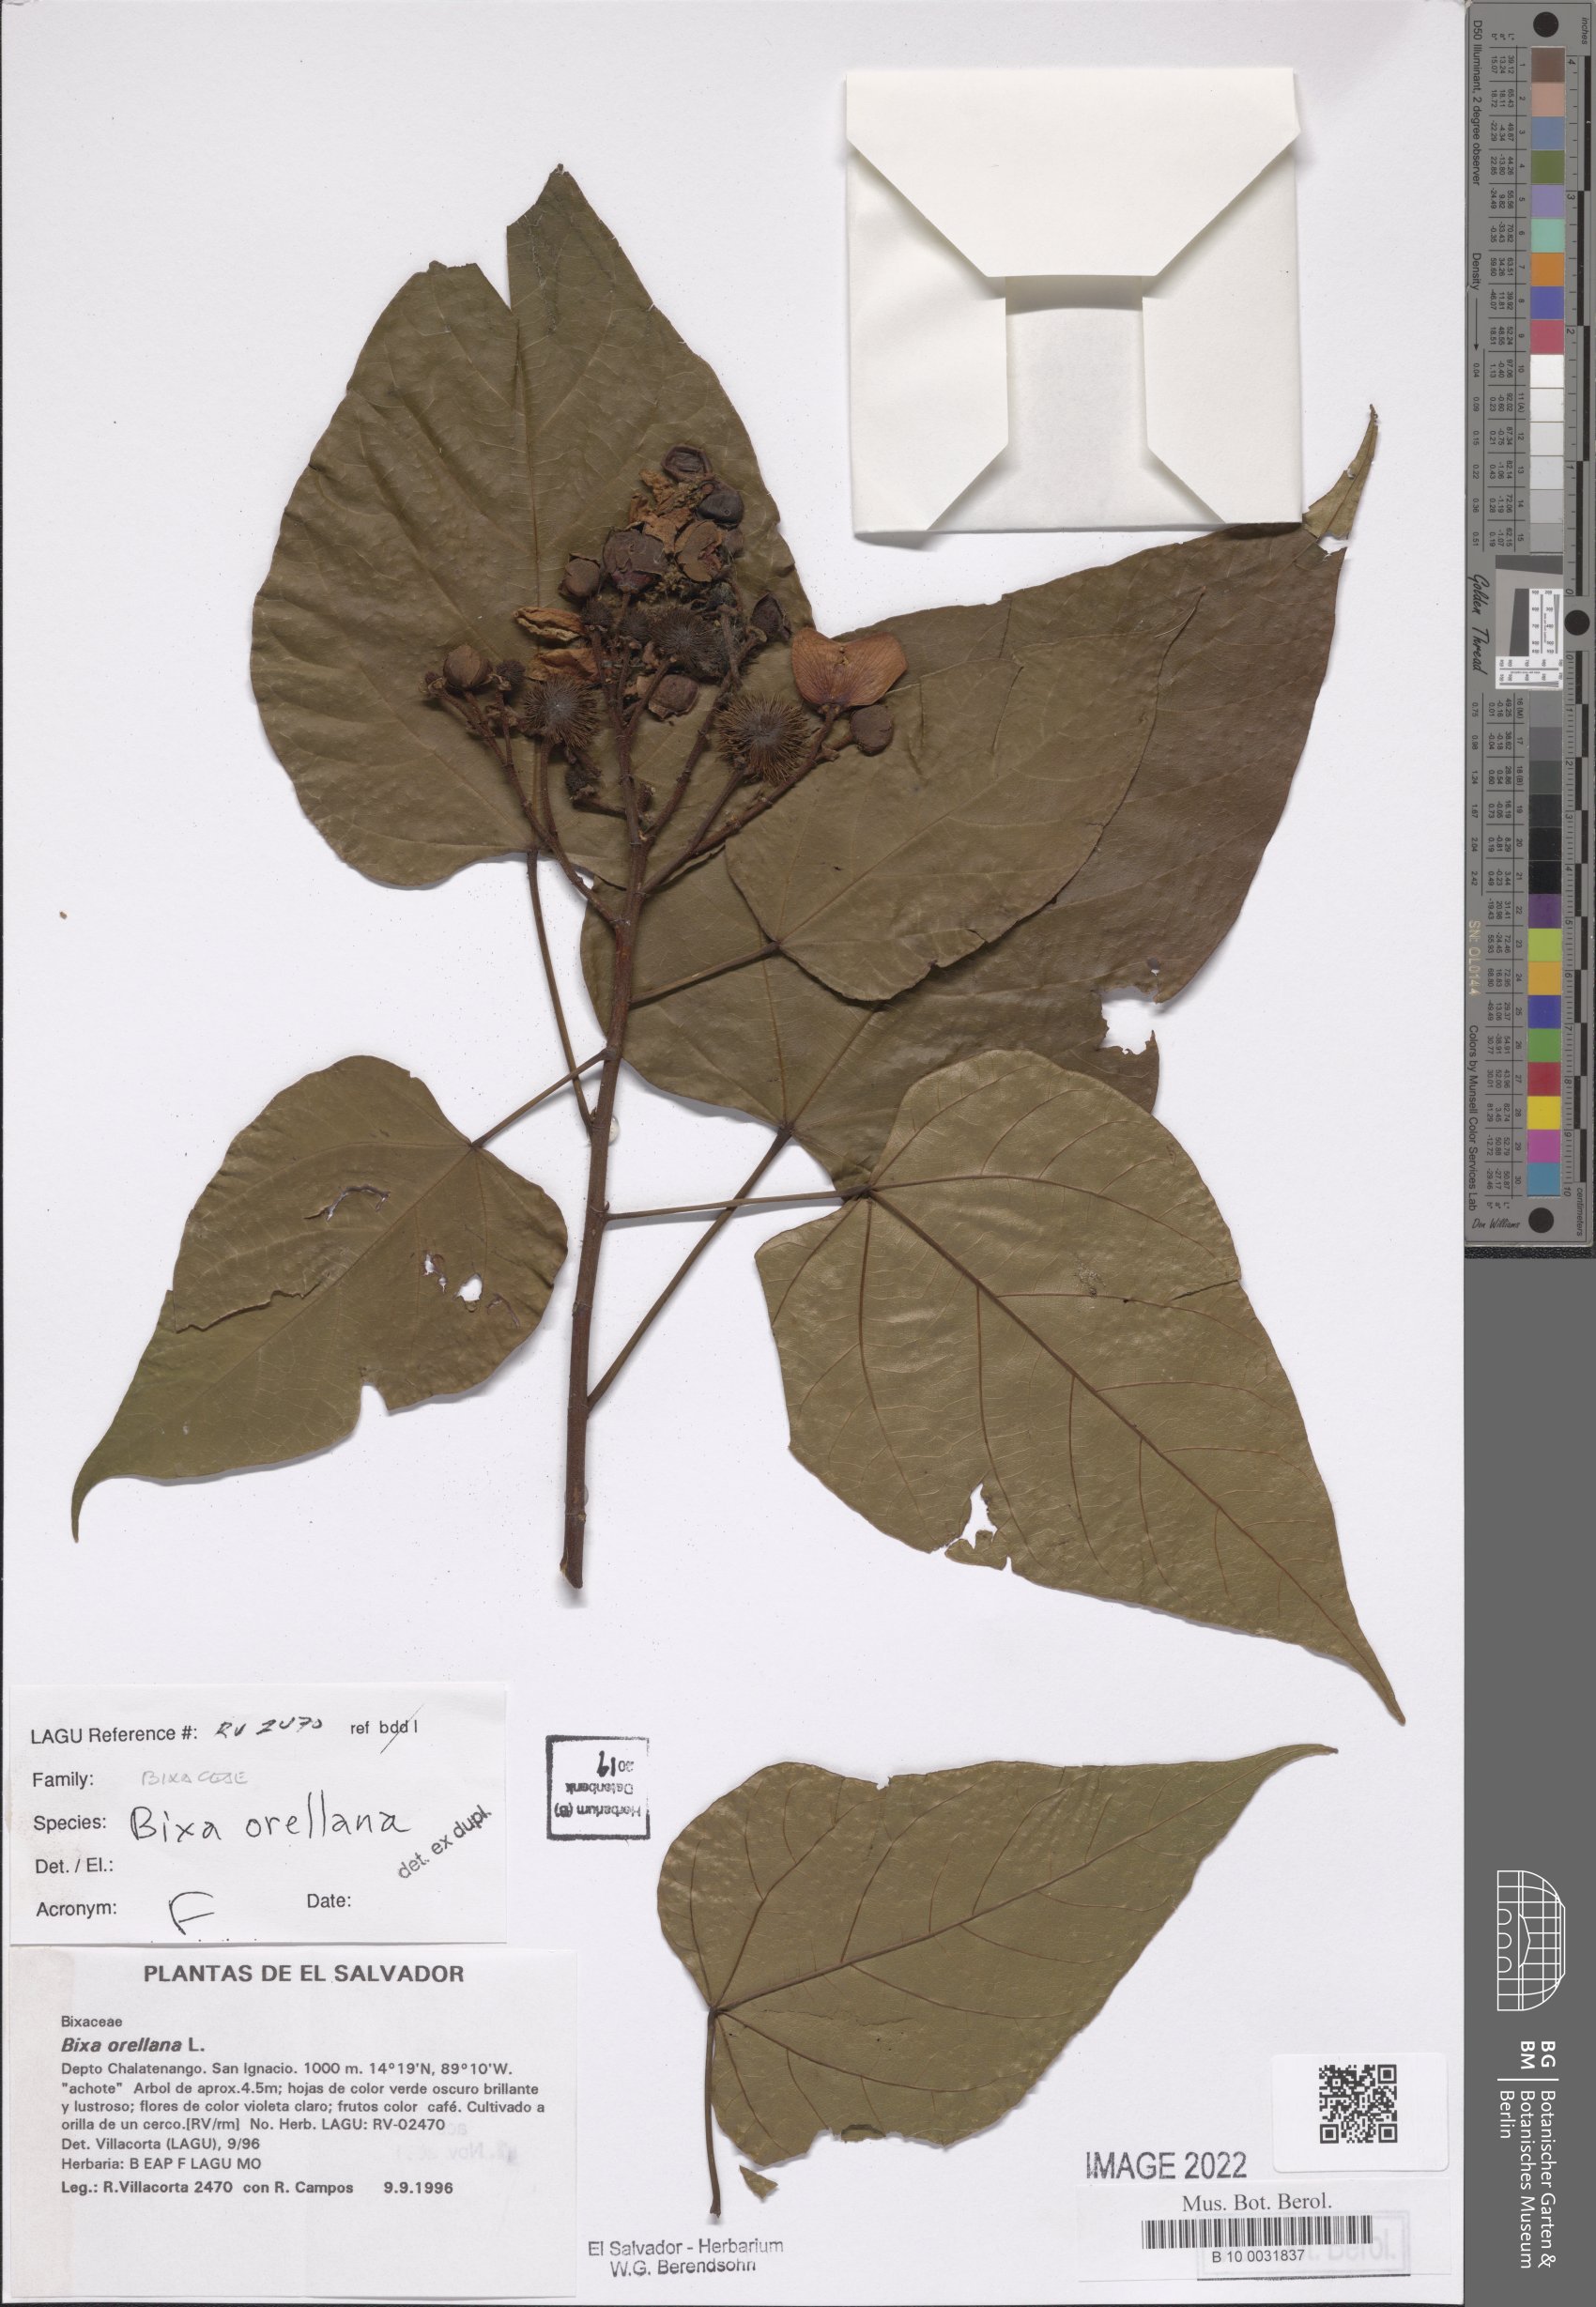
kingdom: Plantae
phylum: Tracheophyta
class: Magnoliopsida
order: Malvales
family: Bixaceae
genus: Bixa
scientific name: Bixa orellana
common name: Lipsticktree
